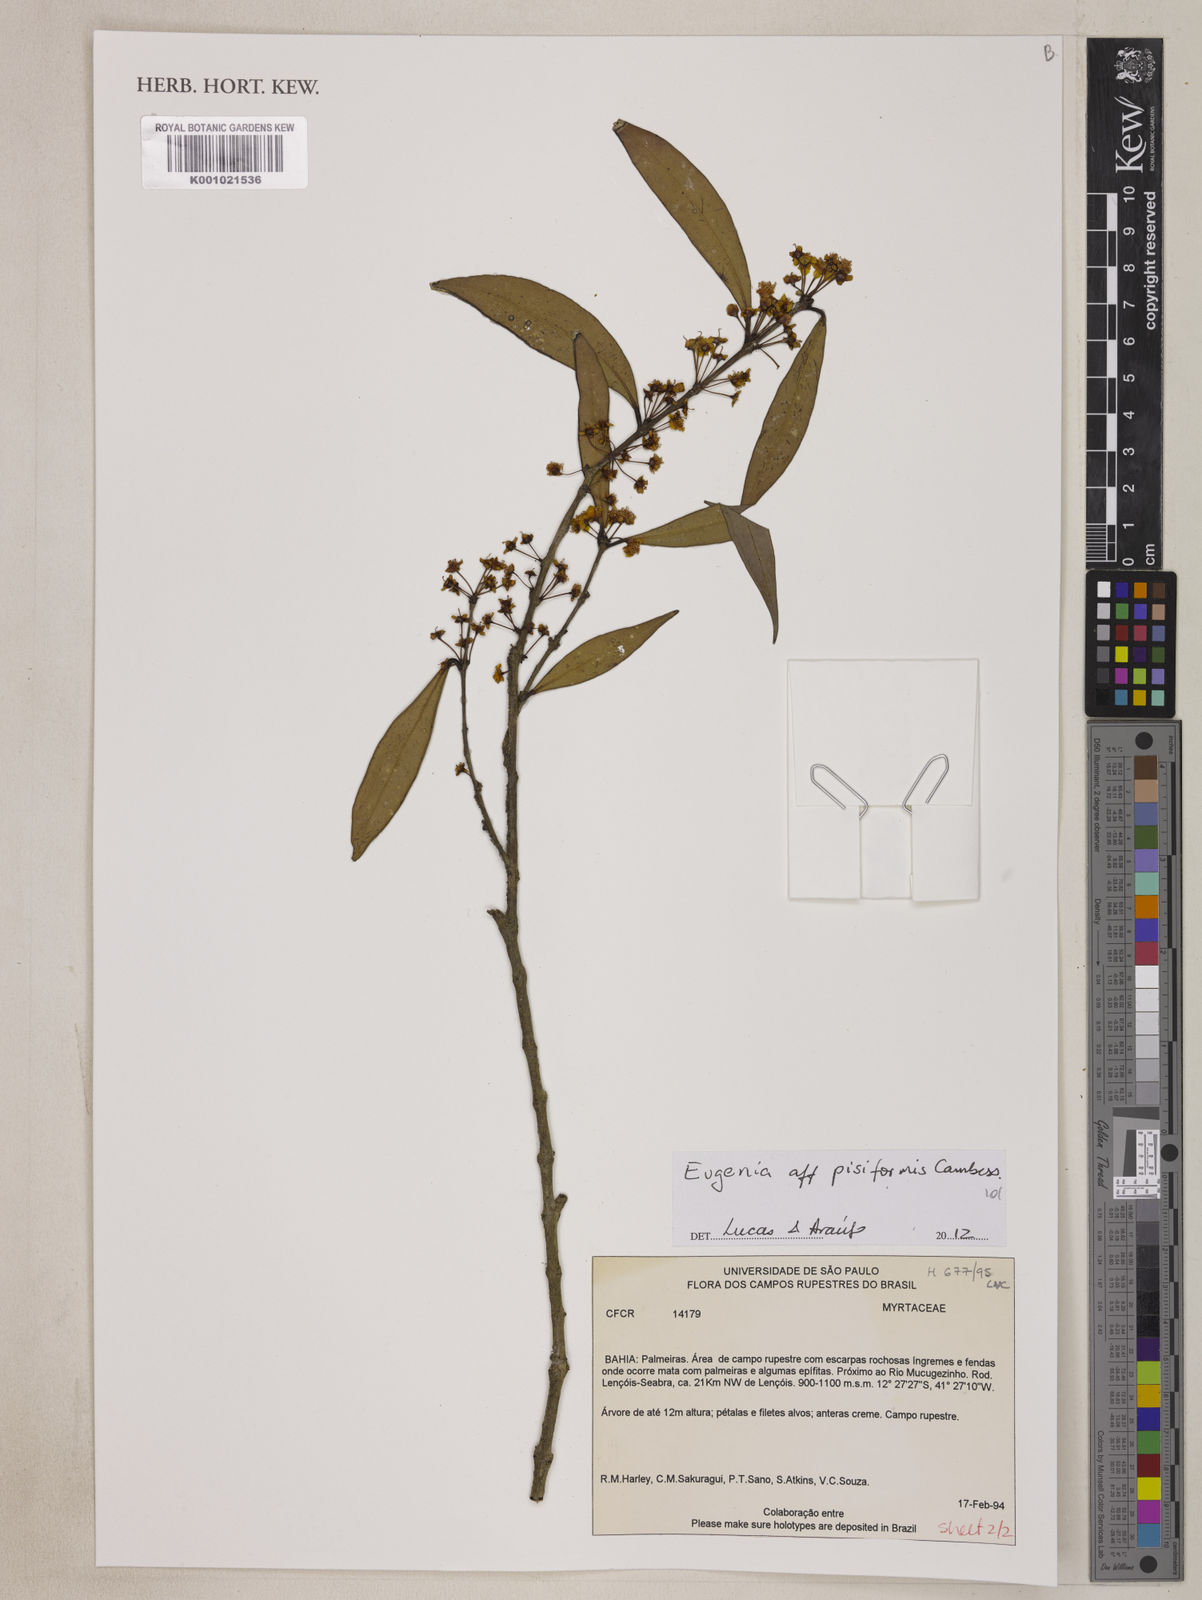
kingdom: Plantae
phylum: Tracheophyta
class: Magnoliopsida
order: Myrtales
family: Myrtaceae
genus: Eugenia
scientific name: Eugenia pisiformis
